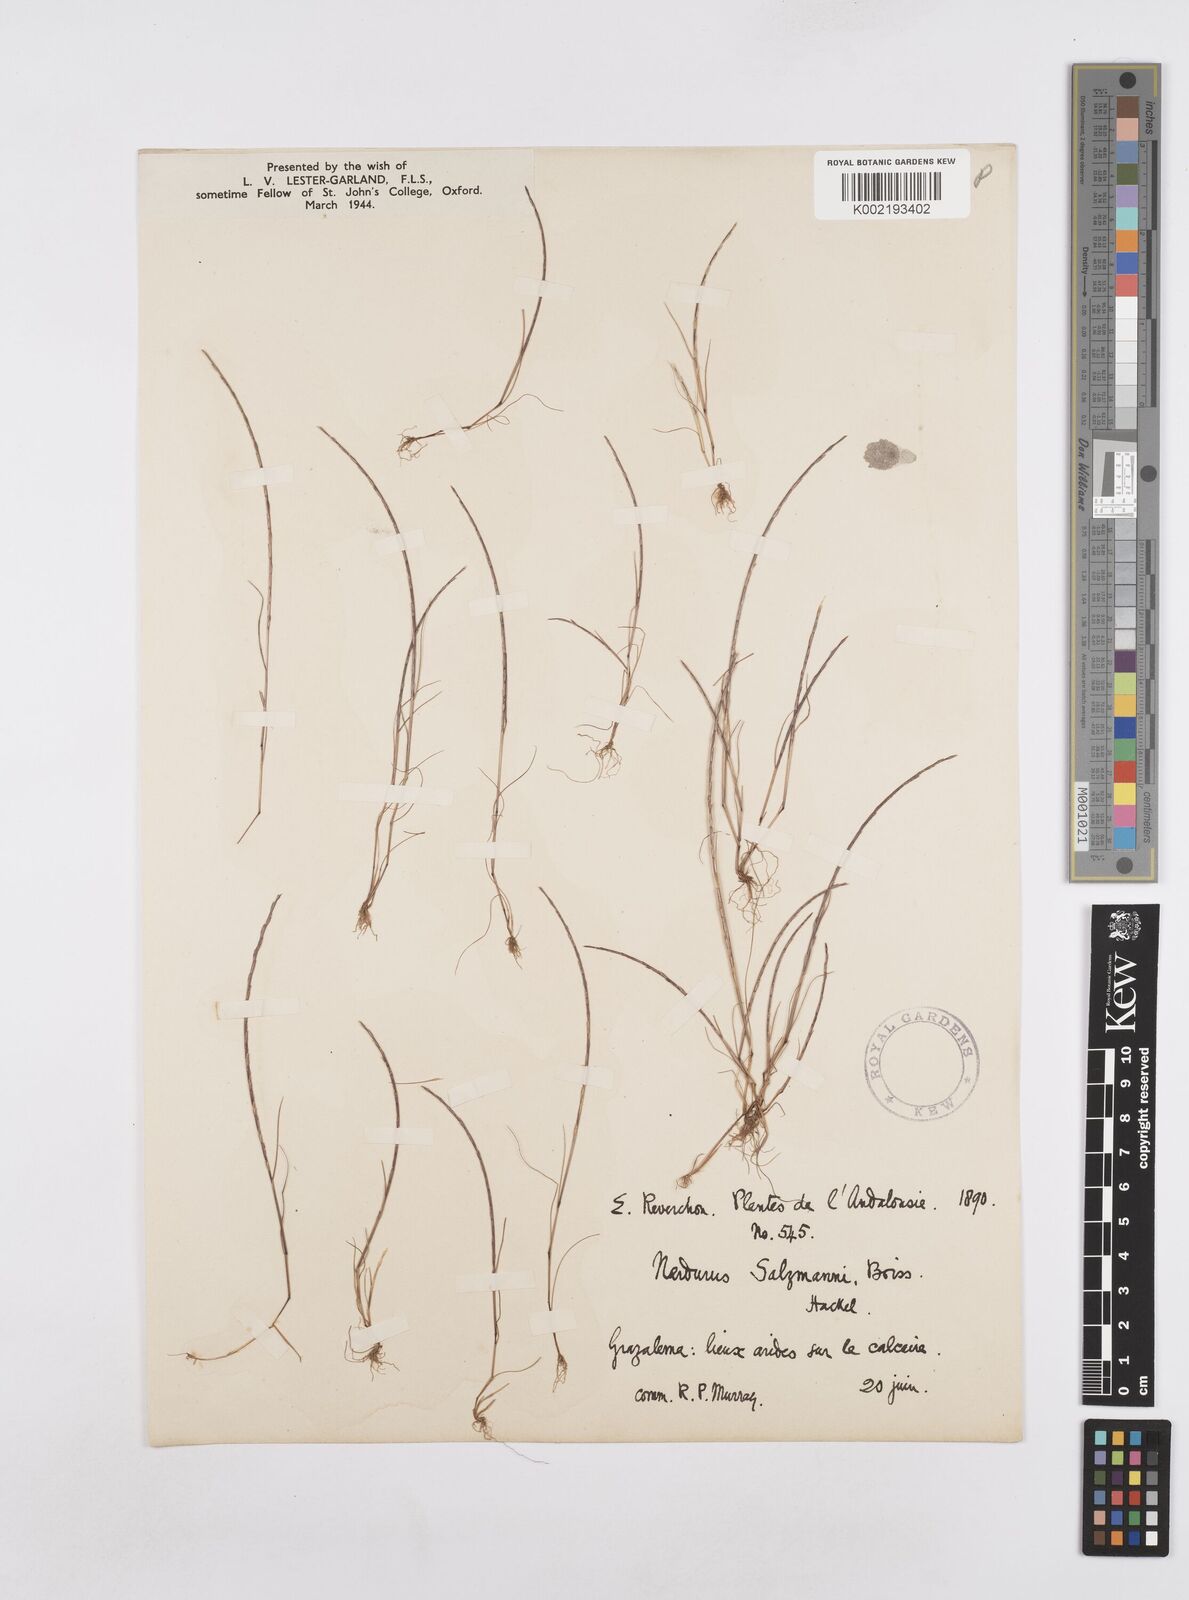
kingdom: Plantae
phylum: Tracheophyta
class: Liliopsida
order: Poales
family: Poaceae
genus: Festuca
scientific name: Festuca salzmannii
